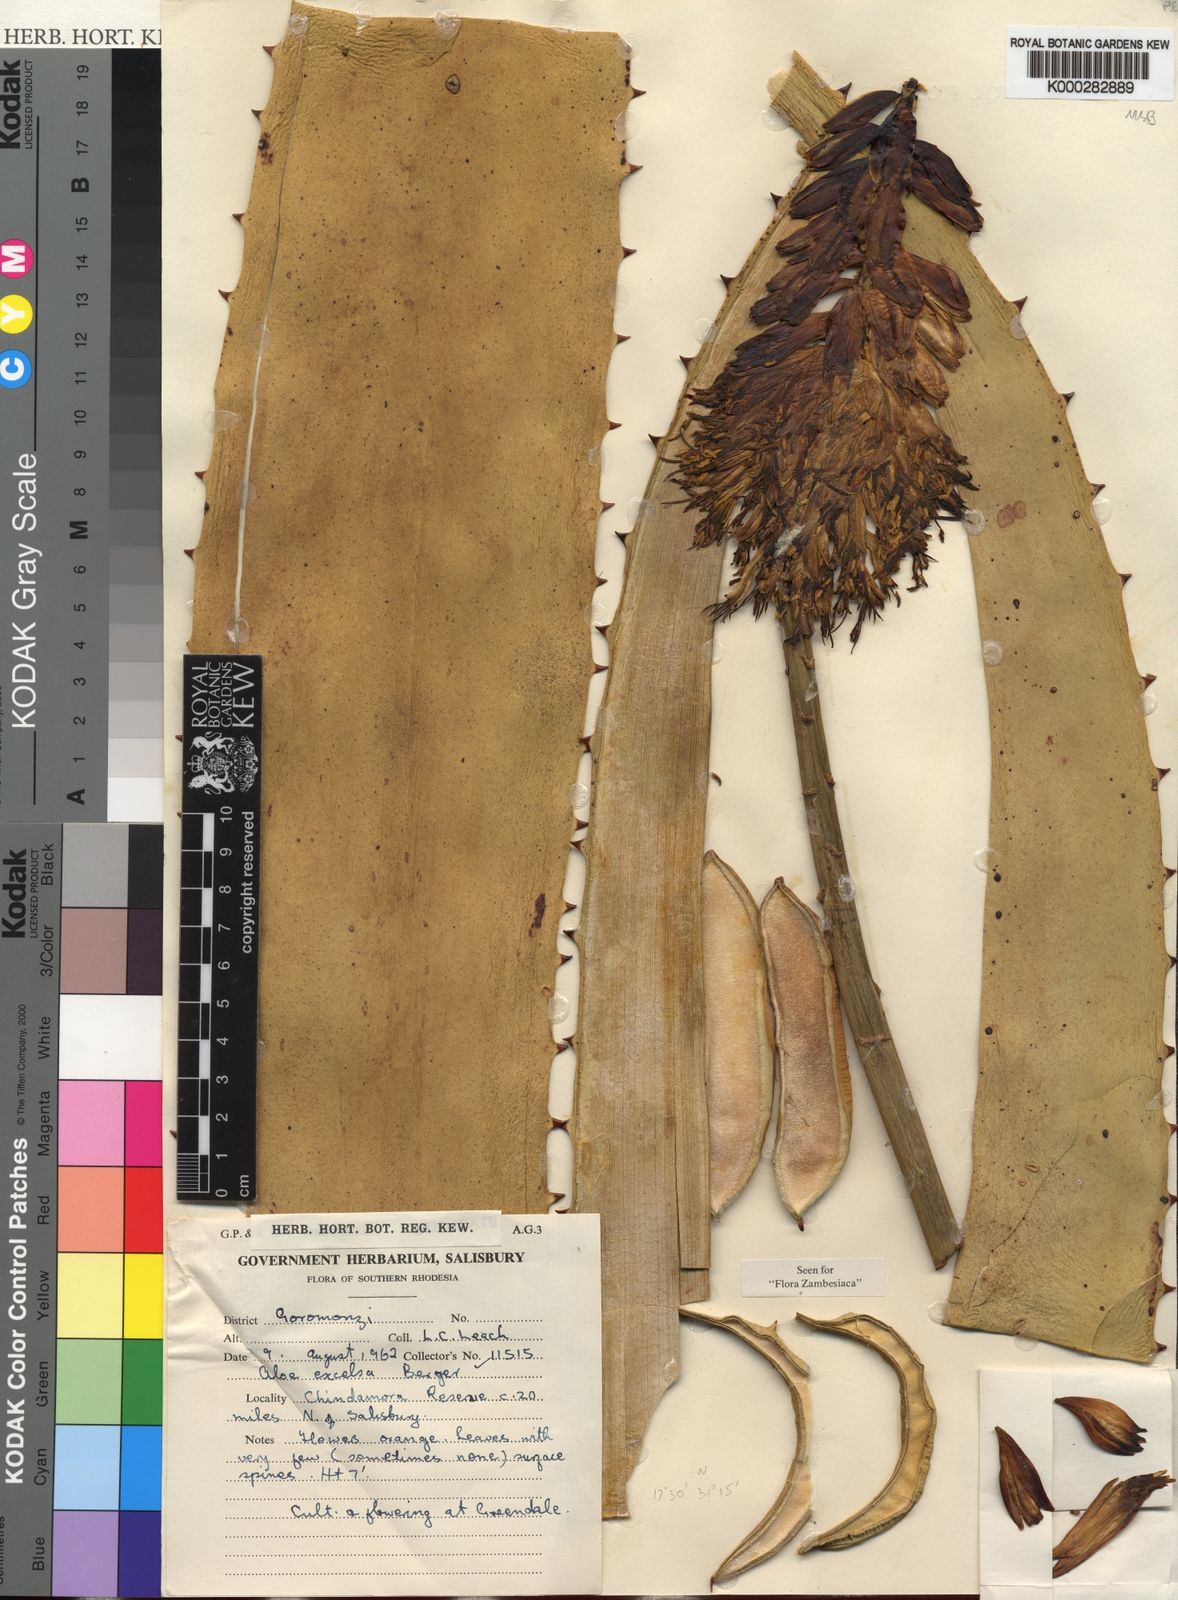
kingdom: Plantae
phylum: Tracheophyta
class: Liliopsida
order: Asparagales
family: Asphodelaceae
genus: Aloe
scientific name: Aloe excelsa
